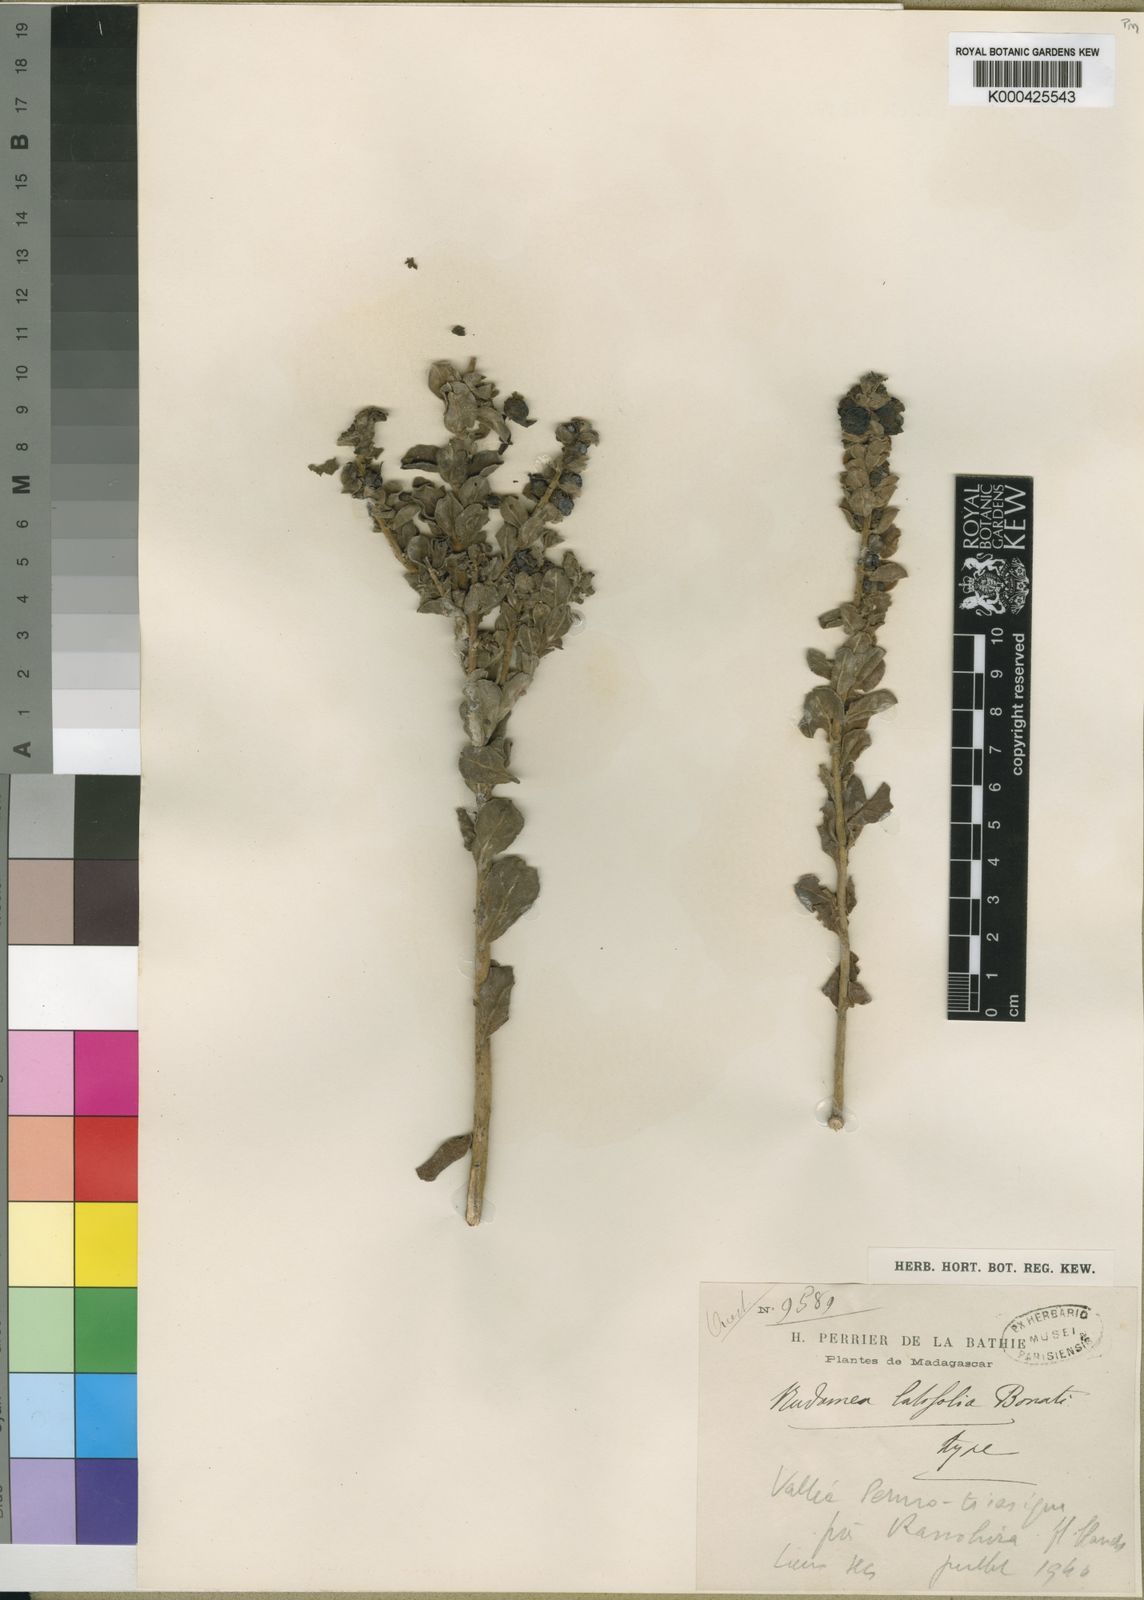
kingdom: Plantae
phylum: Tracheophyta
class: Magnoliopsida
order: Lamiales
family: Orobanchaceae
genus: Radamaea
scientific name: Radamaea latifolia
